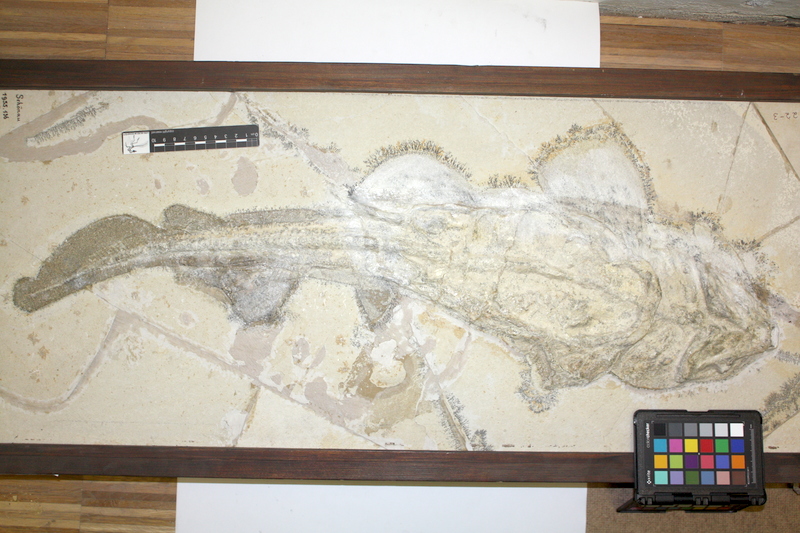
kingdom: Animalia
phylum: Chordata
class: Elasmobranchii
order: Orectolobiformes
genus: Palaeocarcharias
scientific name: Palaeocarcharias stromeri
